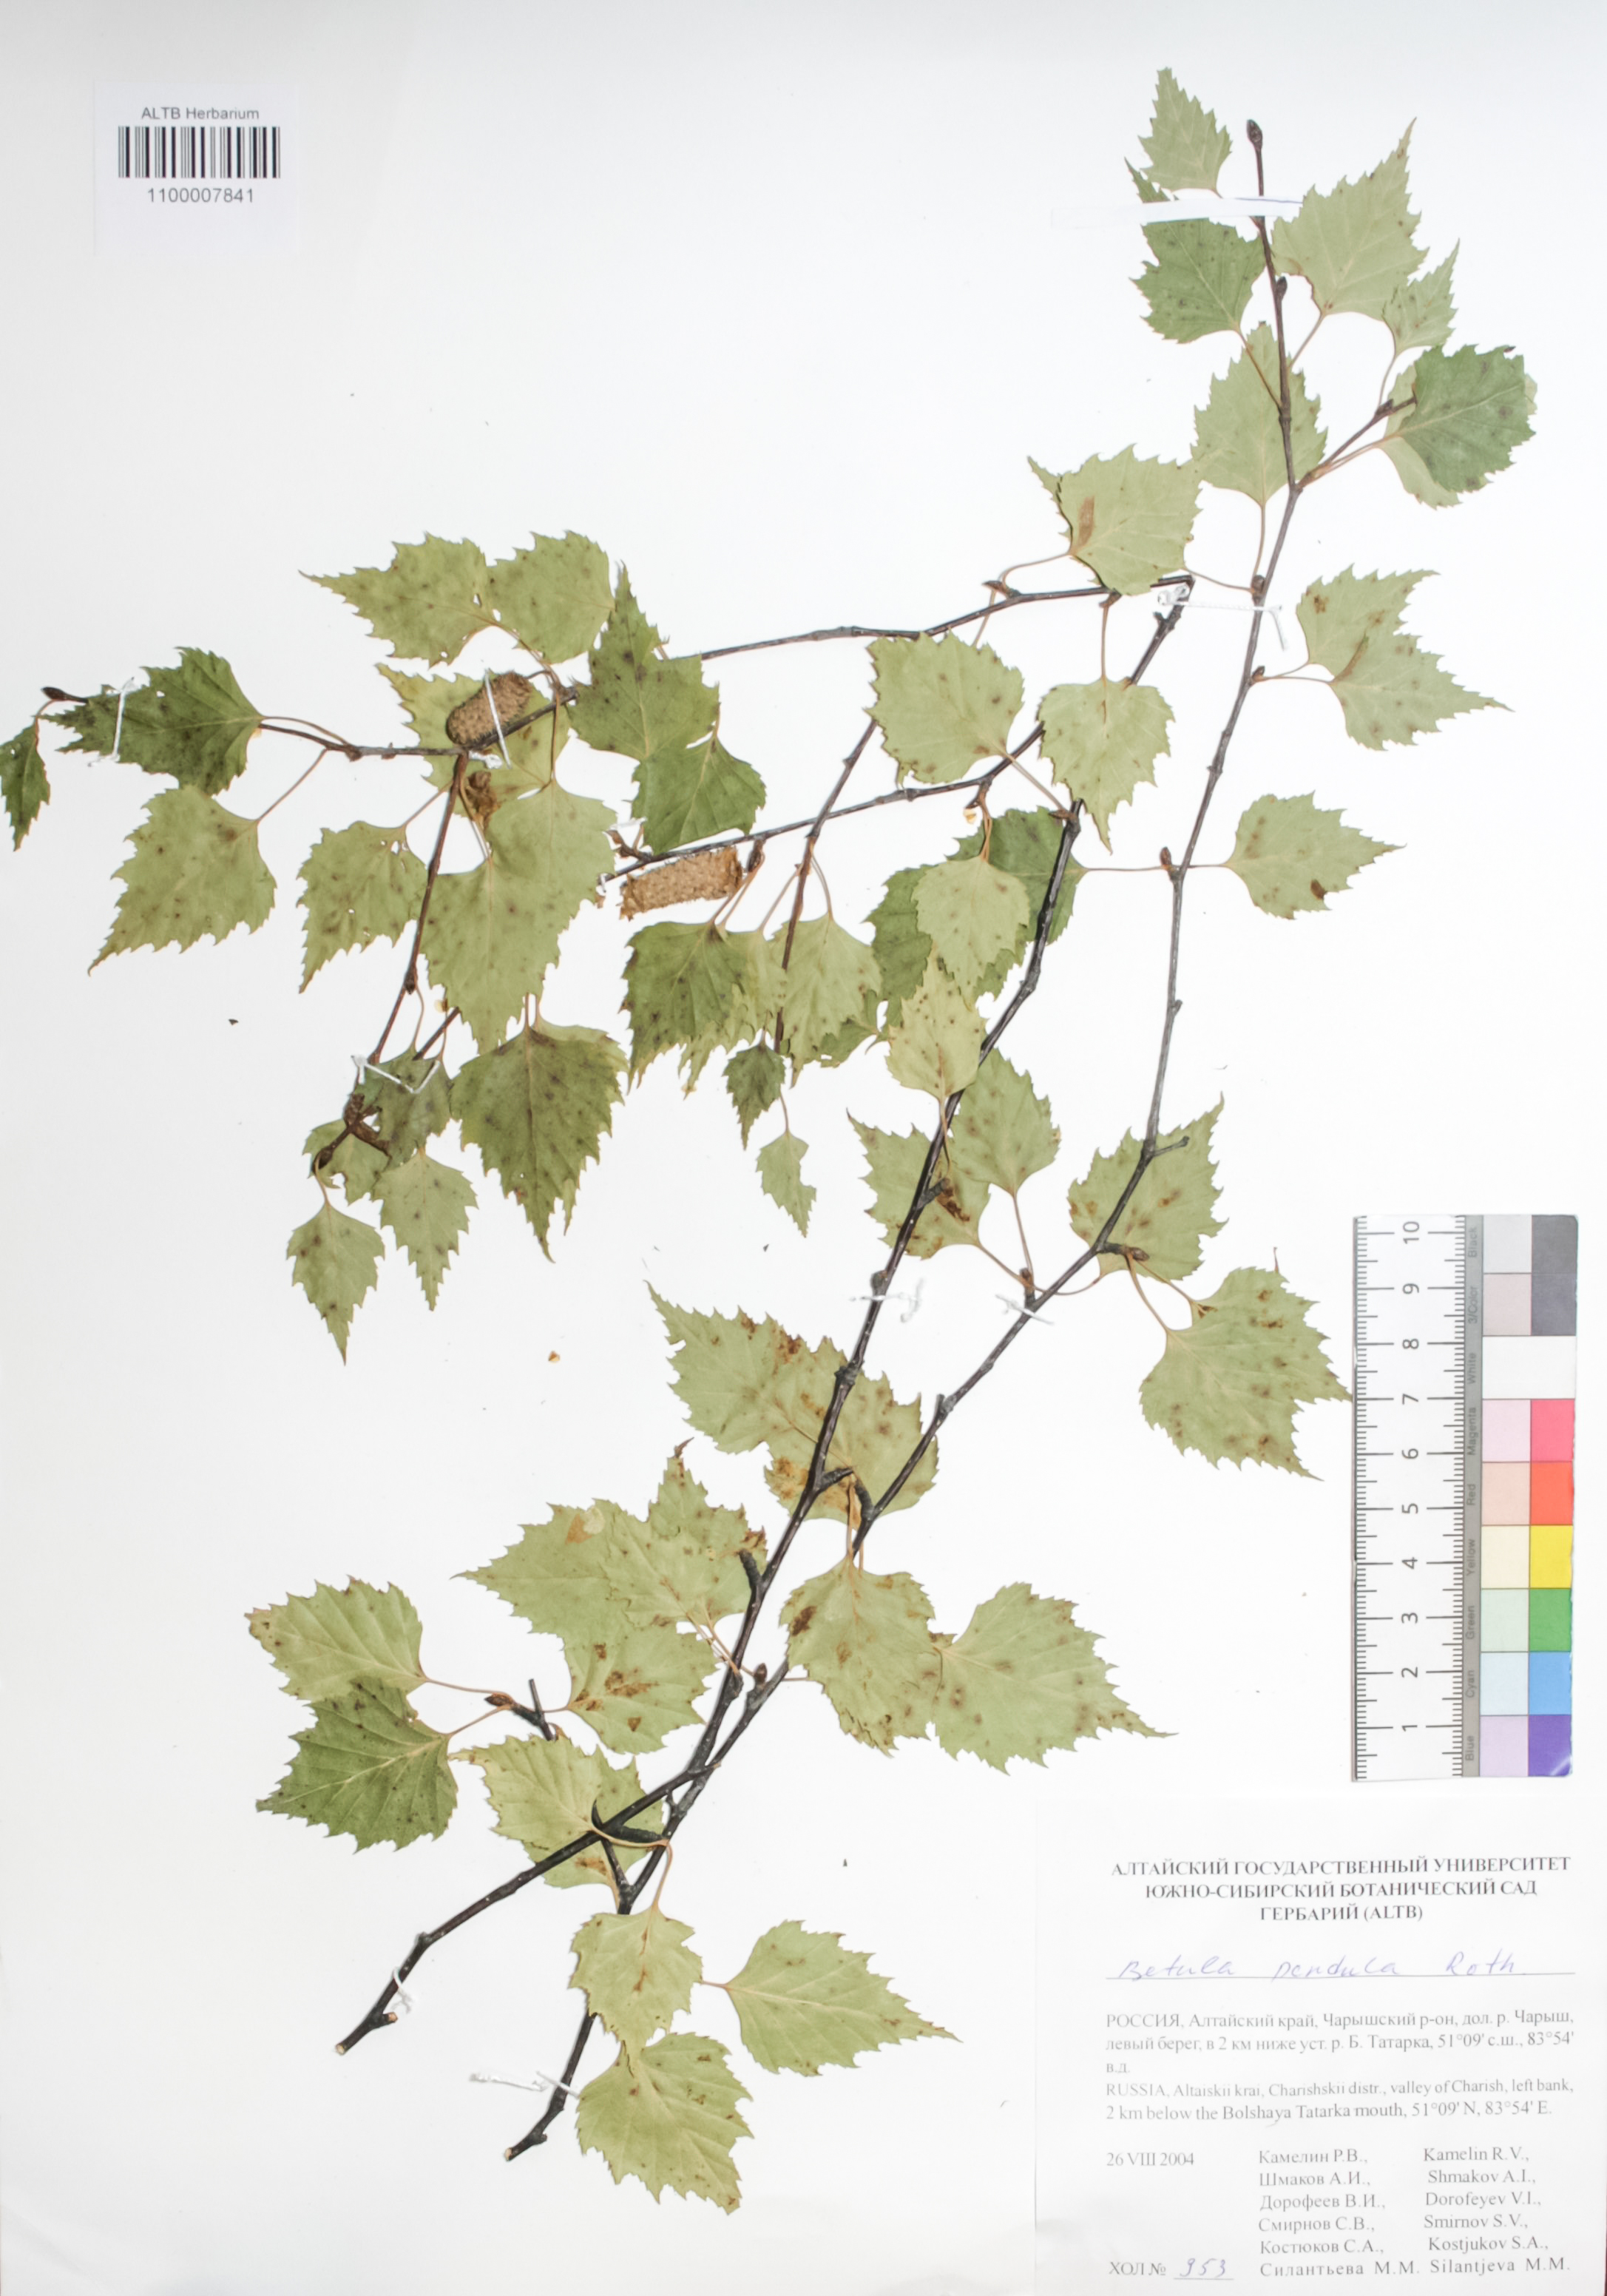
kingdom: Plantae
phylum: Tracheophyta
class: Magnoliopsida
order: Fagales
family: Betulaceae
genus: Betula
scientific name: Betula pendula
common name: Silver birch
